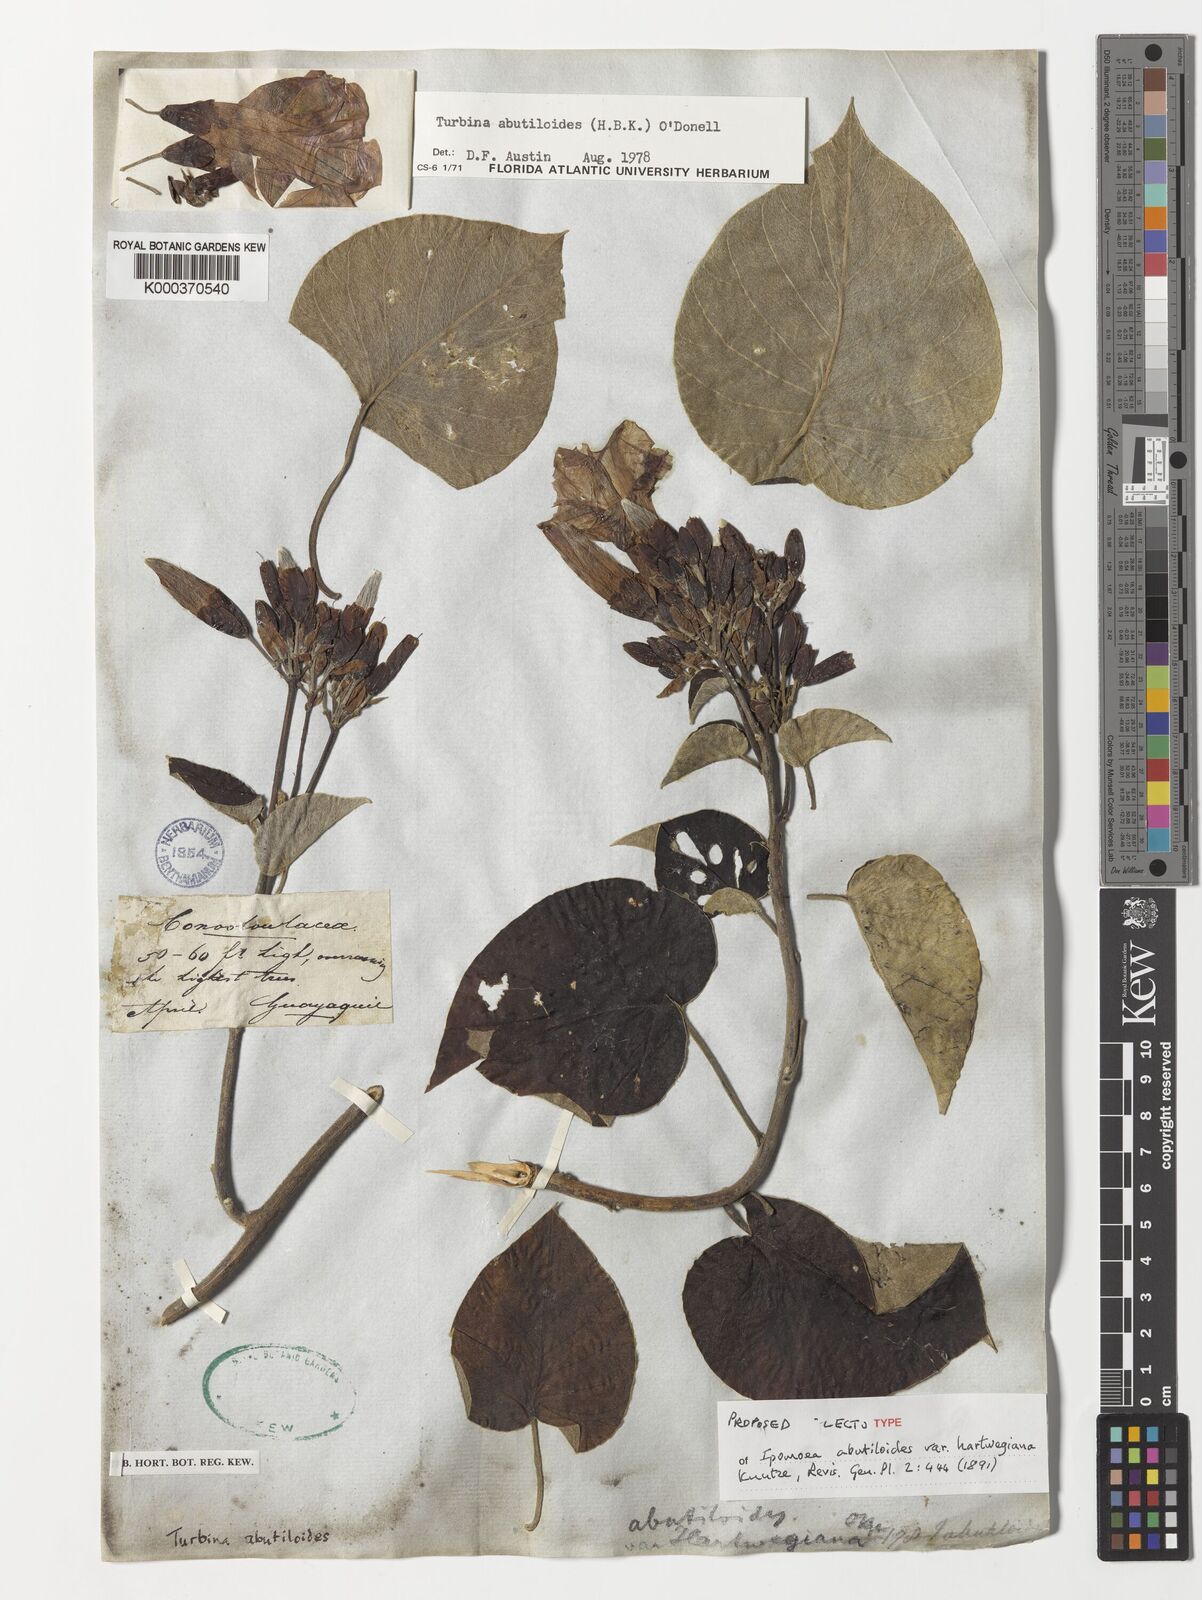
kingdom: Plantae
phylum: Tracheophyta
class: Magnoliopsida
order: Solanales
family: Convolvulaceae
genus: Ipomoea
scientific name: Ipomoea abutiloides
